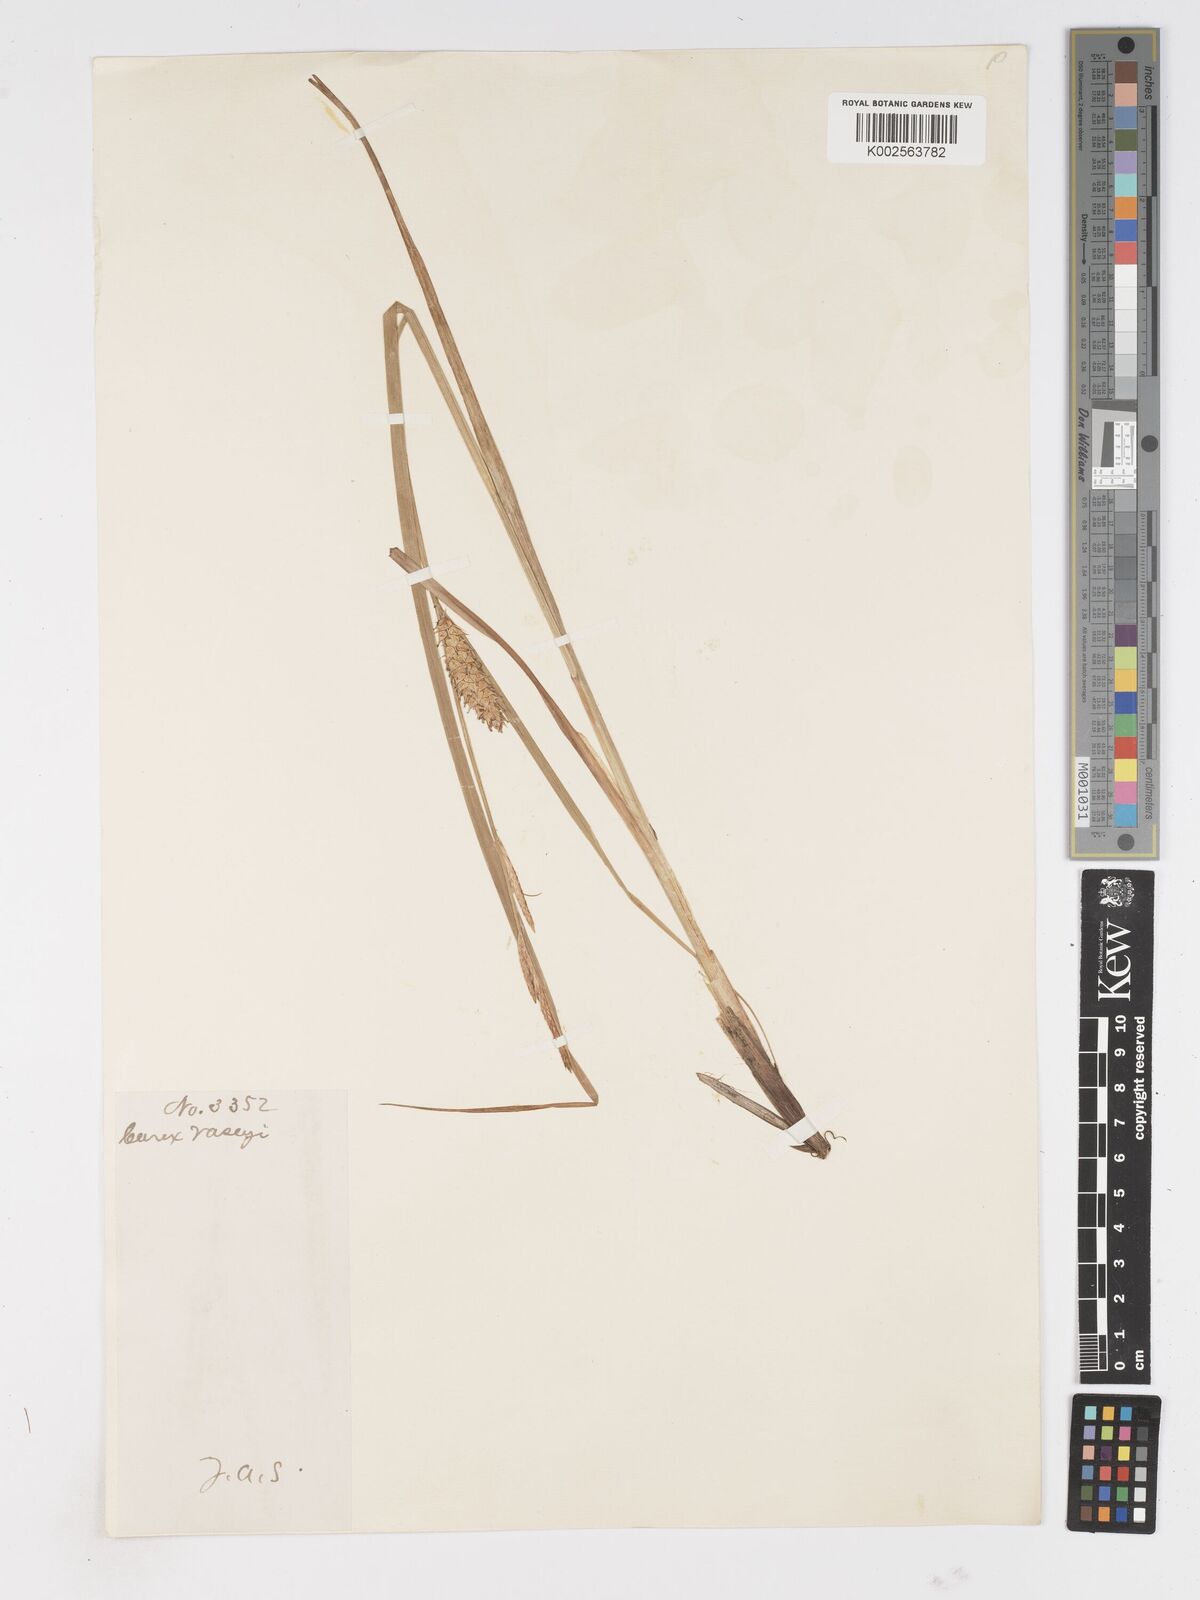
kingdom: Plantae
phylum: Tracheophyta
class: Liliopsida
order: Poales
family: Cyperaceae
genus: Carex
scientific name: Carex vesicaria
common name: Bladder-sedge
